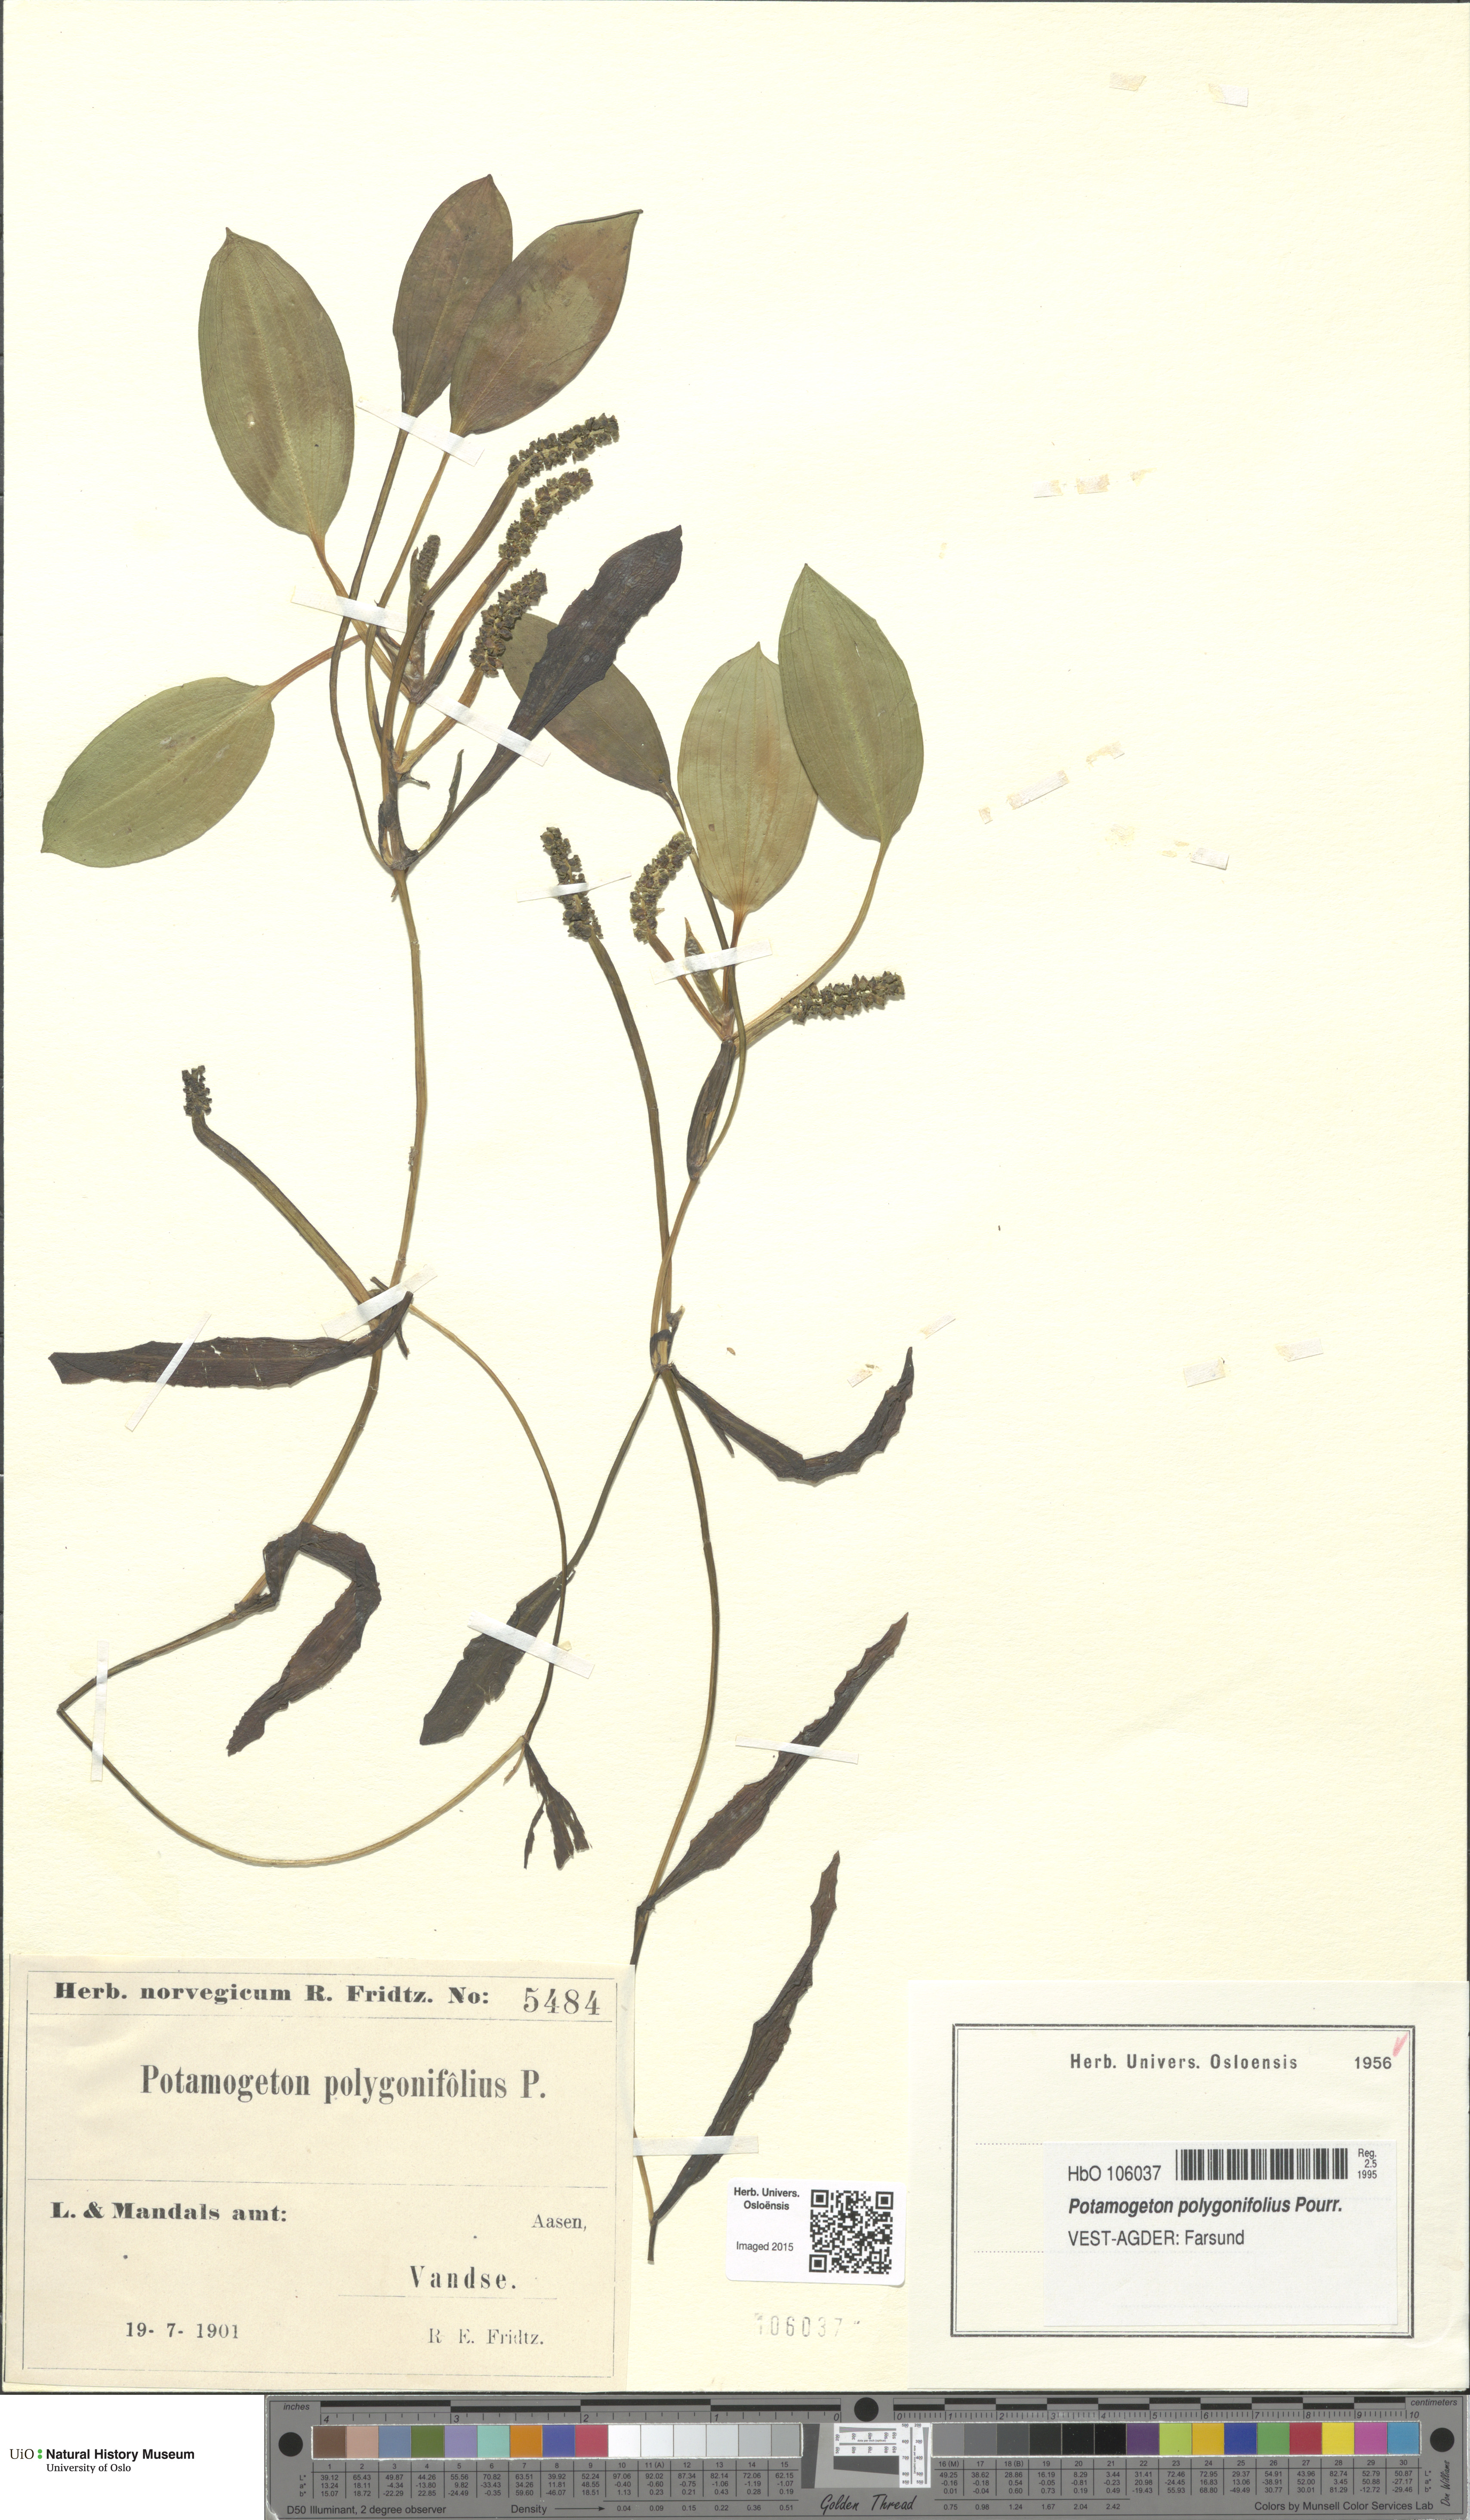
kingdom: Plantae
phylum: Tracheophyta
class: Liliopsida
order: Alismatales
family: Potamogetonaceae
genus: Potamogeton
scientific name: Potamogeton gramineus
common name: Various-leaved pondweed
